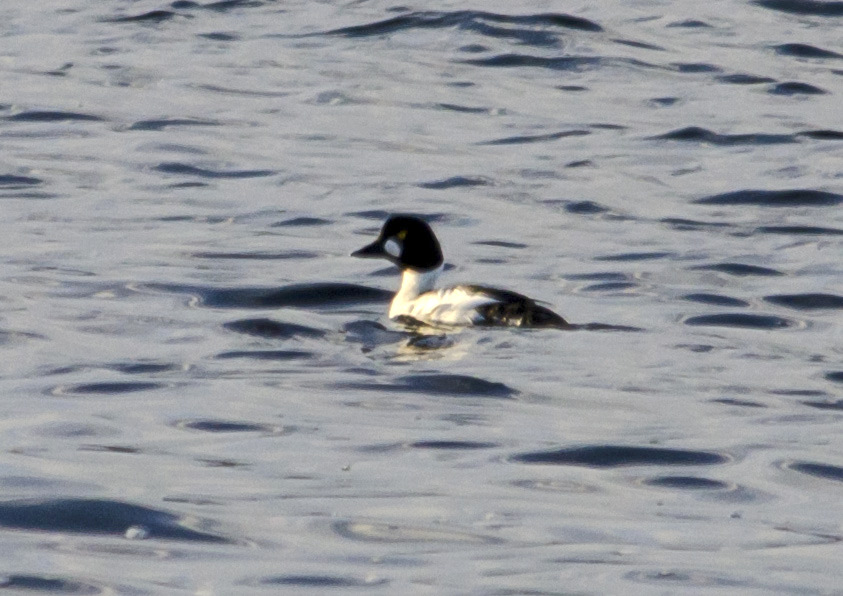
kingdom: Animalia
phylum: Chordata
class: Aves
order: Anseriformes
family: Anatidae
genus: Bucephala
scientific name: Bucephala clangula
